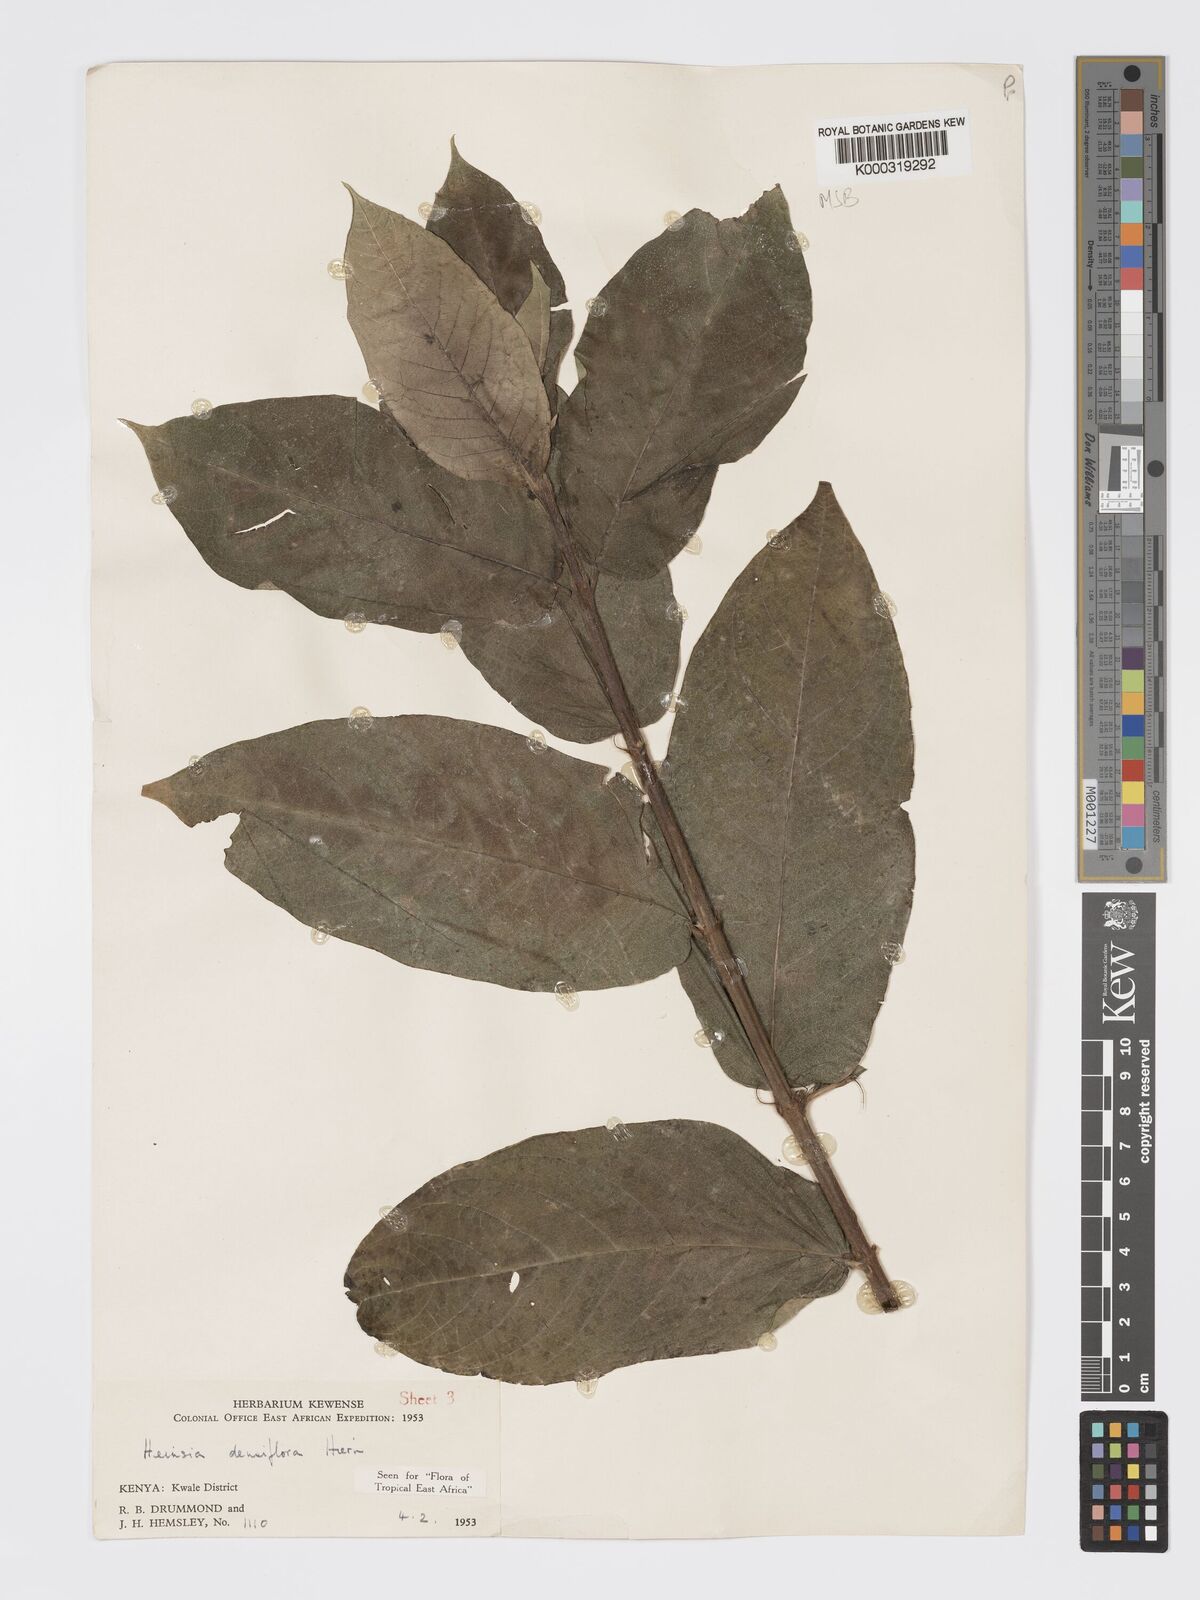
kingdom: Plantae
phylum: Tracheophyta
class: Magnoliopsida
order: Gentianales
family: Rubiaceae
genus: Heinsia
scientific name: Heinsia zanzibarica
